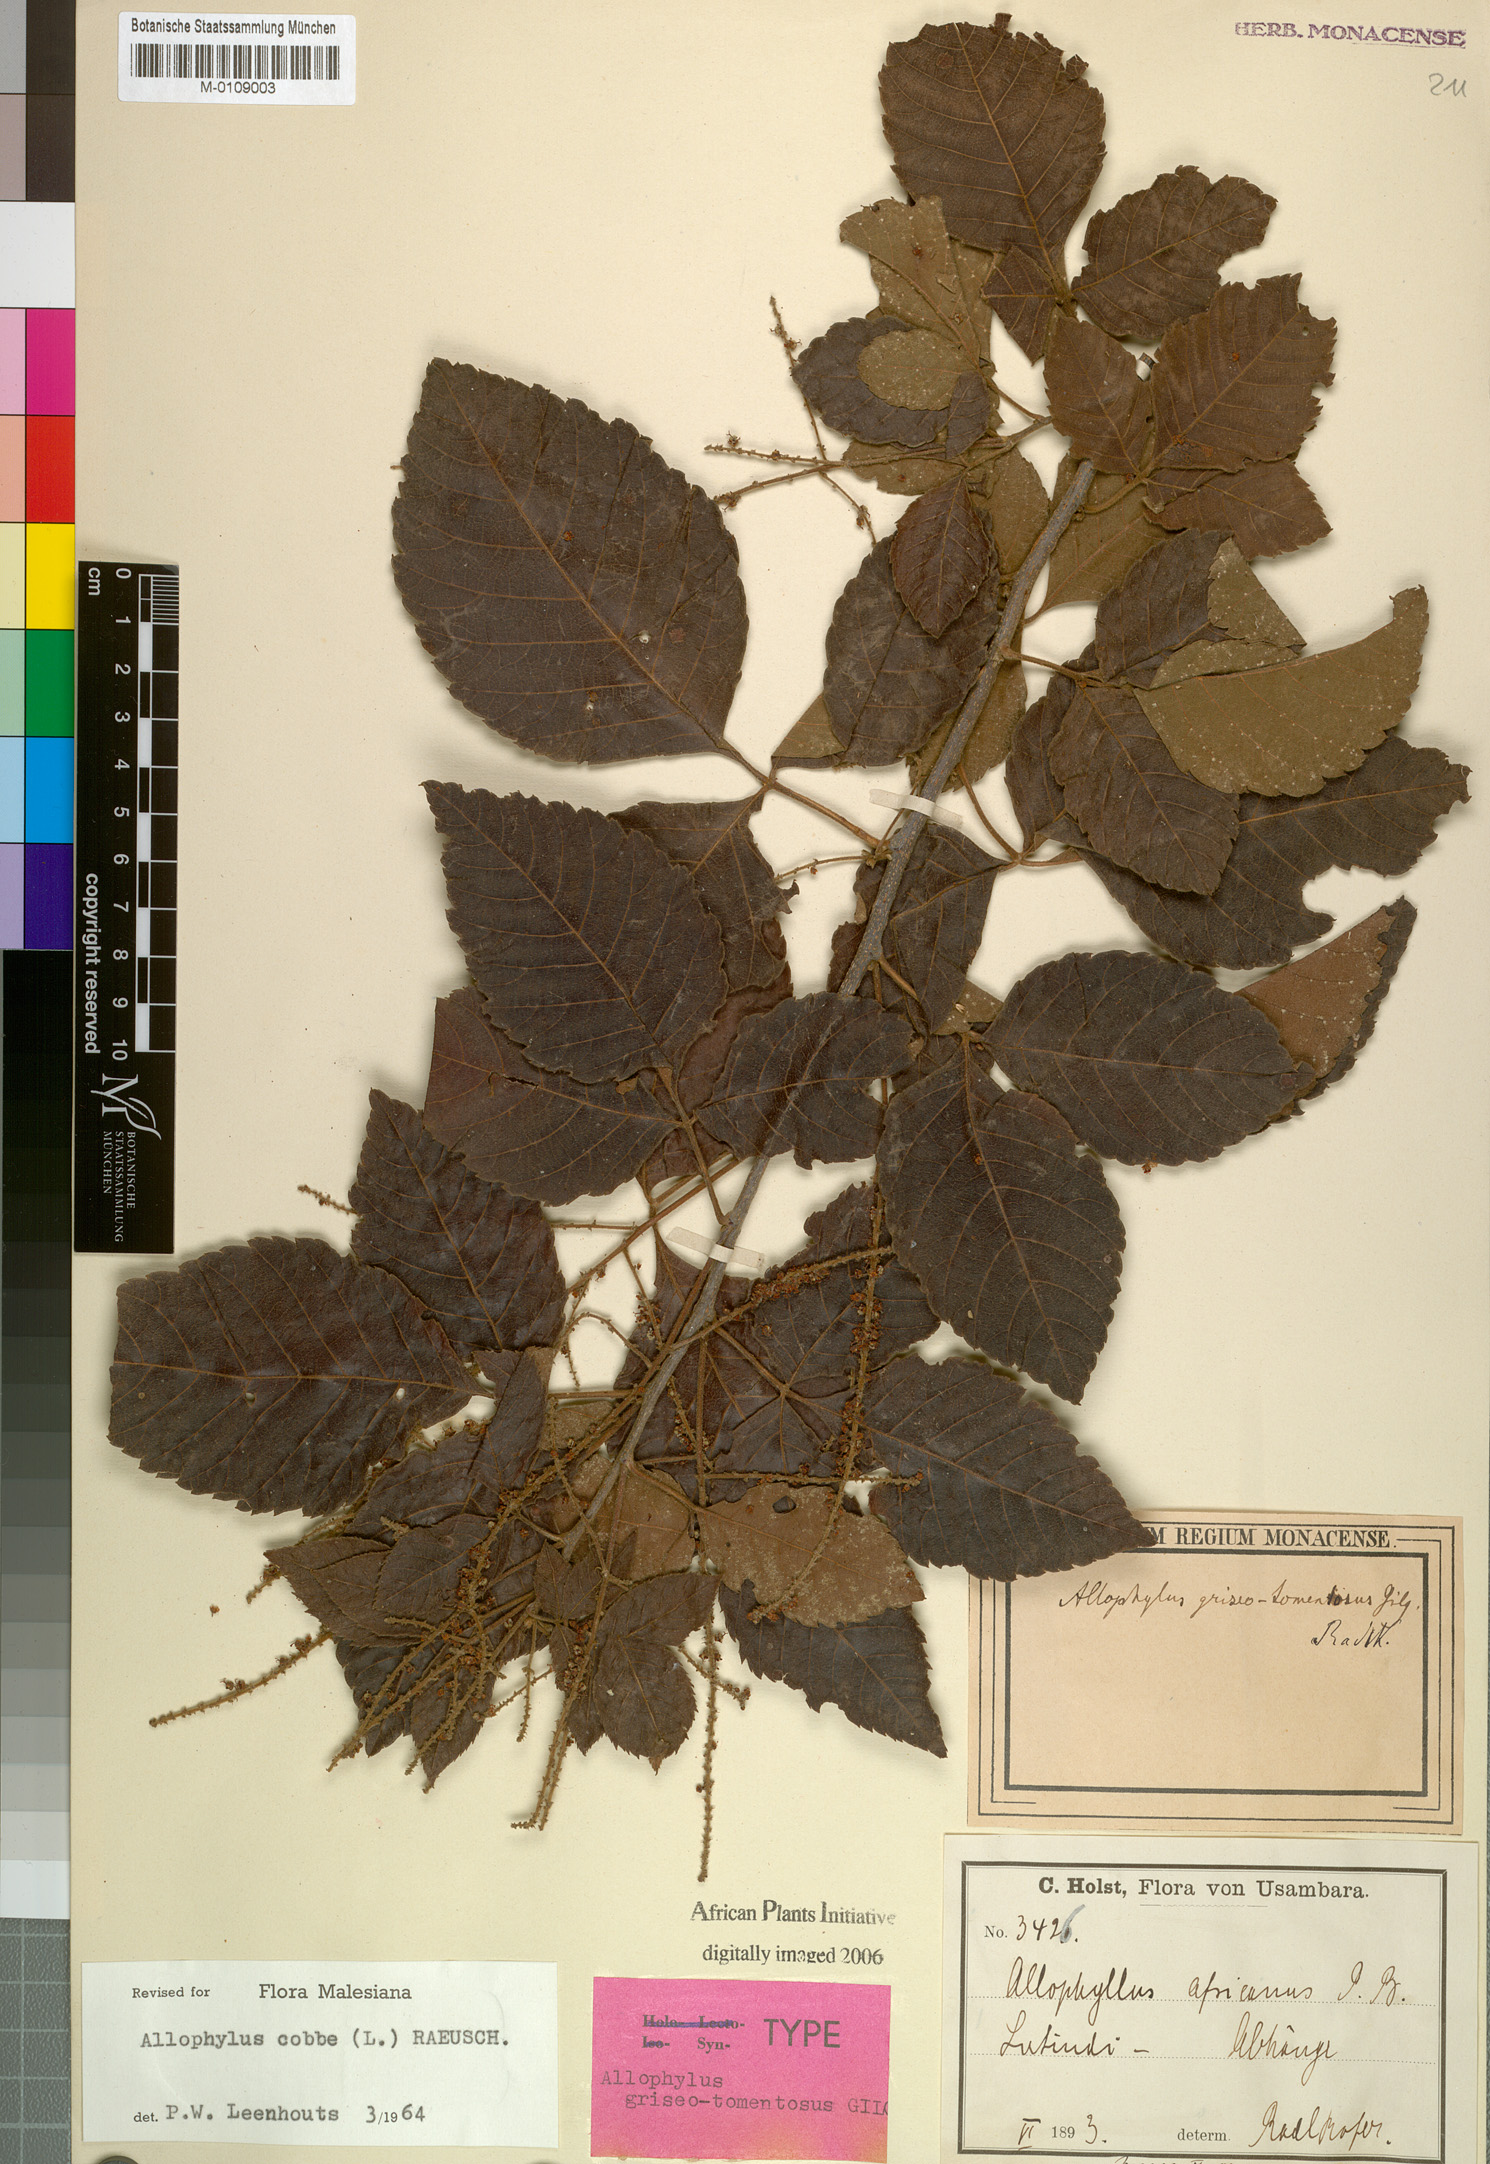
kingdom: Plantae
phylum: Tracheophyta
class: Magnoliopsida
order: Sapindales
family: Sapindaceae
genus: Allophylus
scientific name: Allophylus africanus
